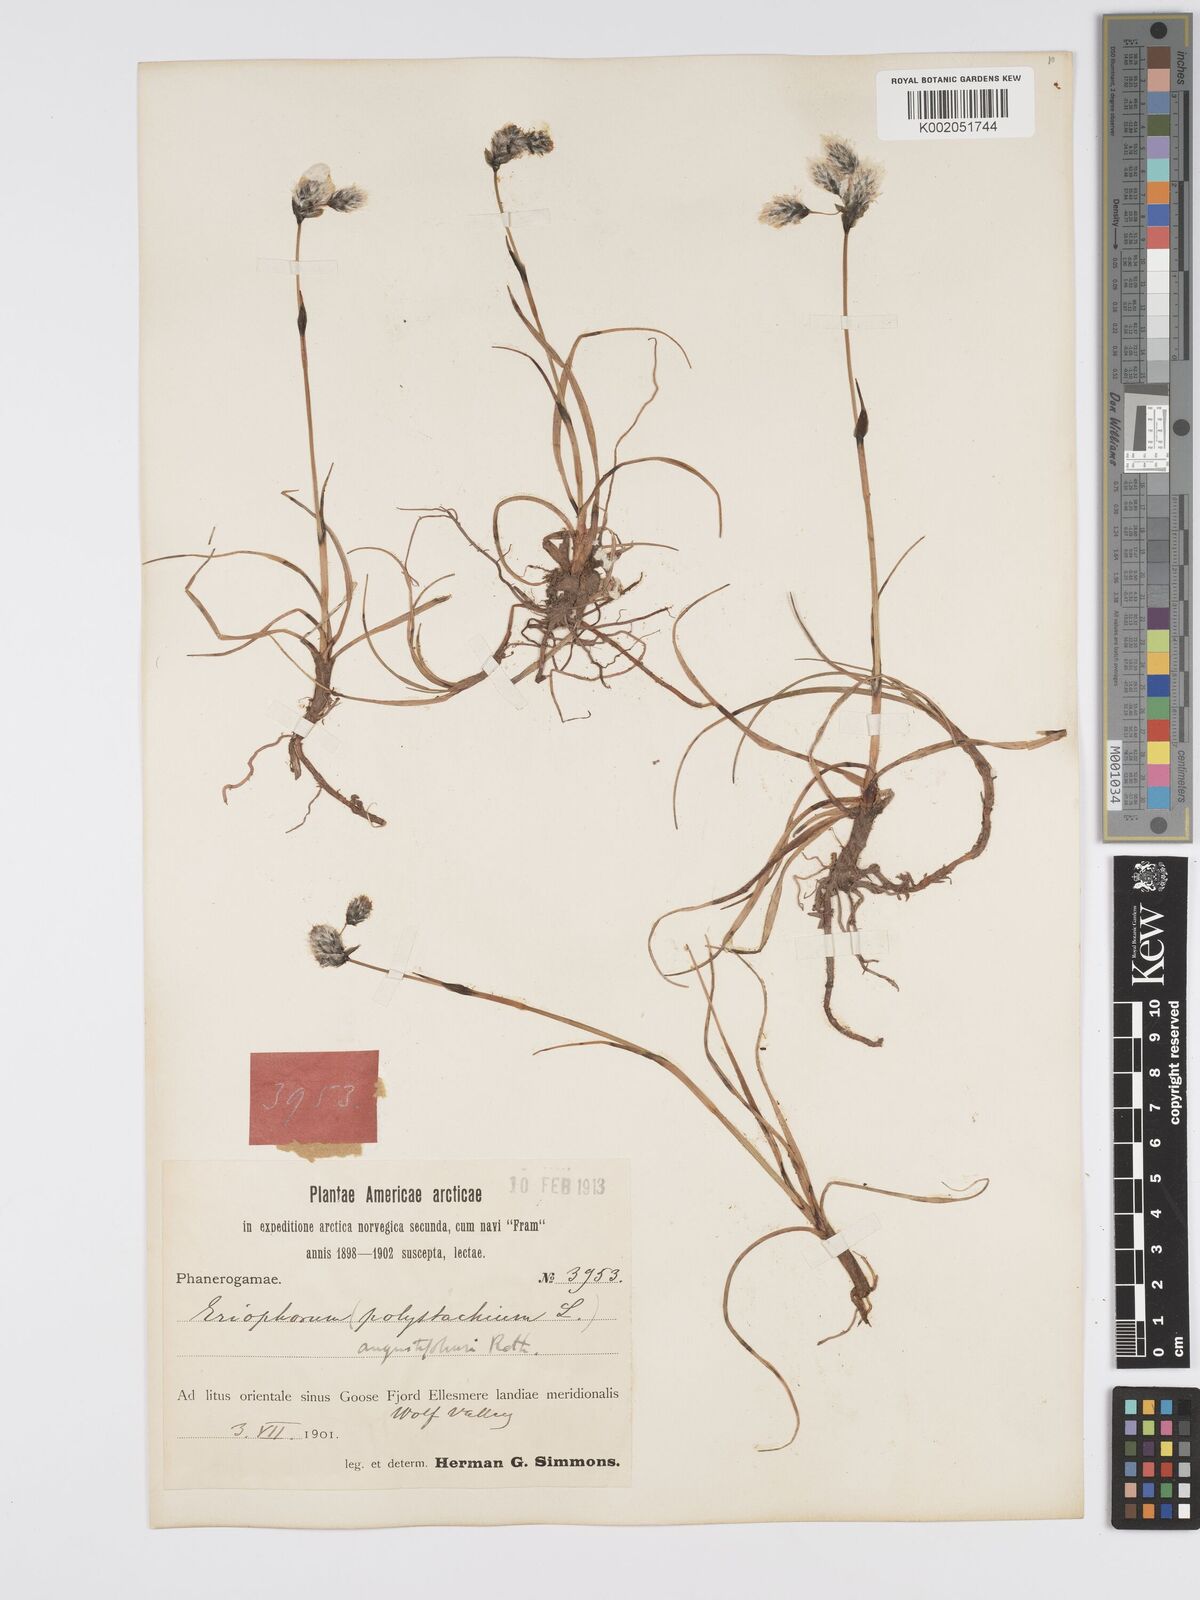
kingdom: Plantae
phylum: Tracheophyta
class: Liliopsida
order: Poales
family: Cyperaceae
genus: Eriophorum
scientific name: Eriophorum angustifolium
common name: Common cottongrass
